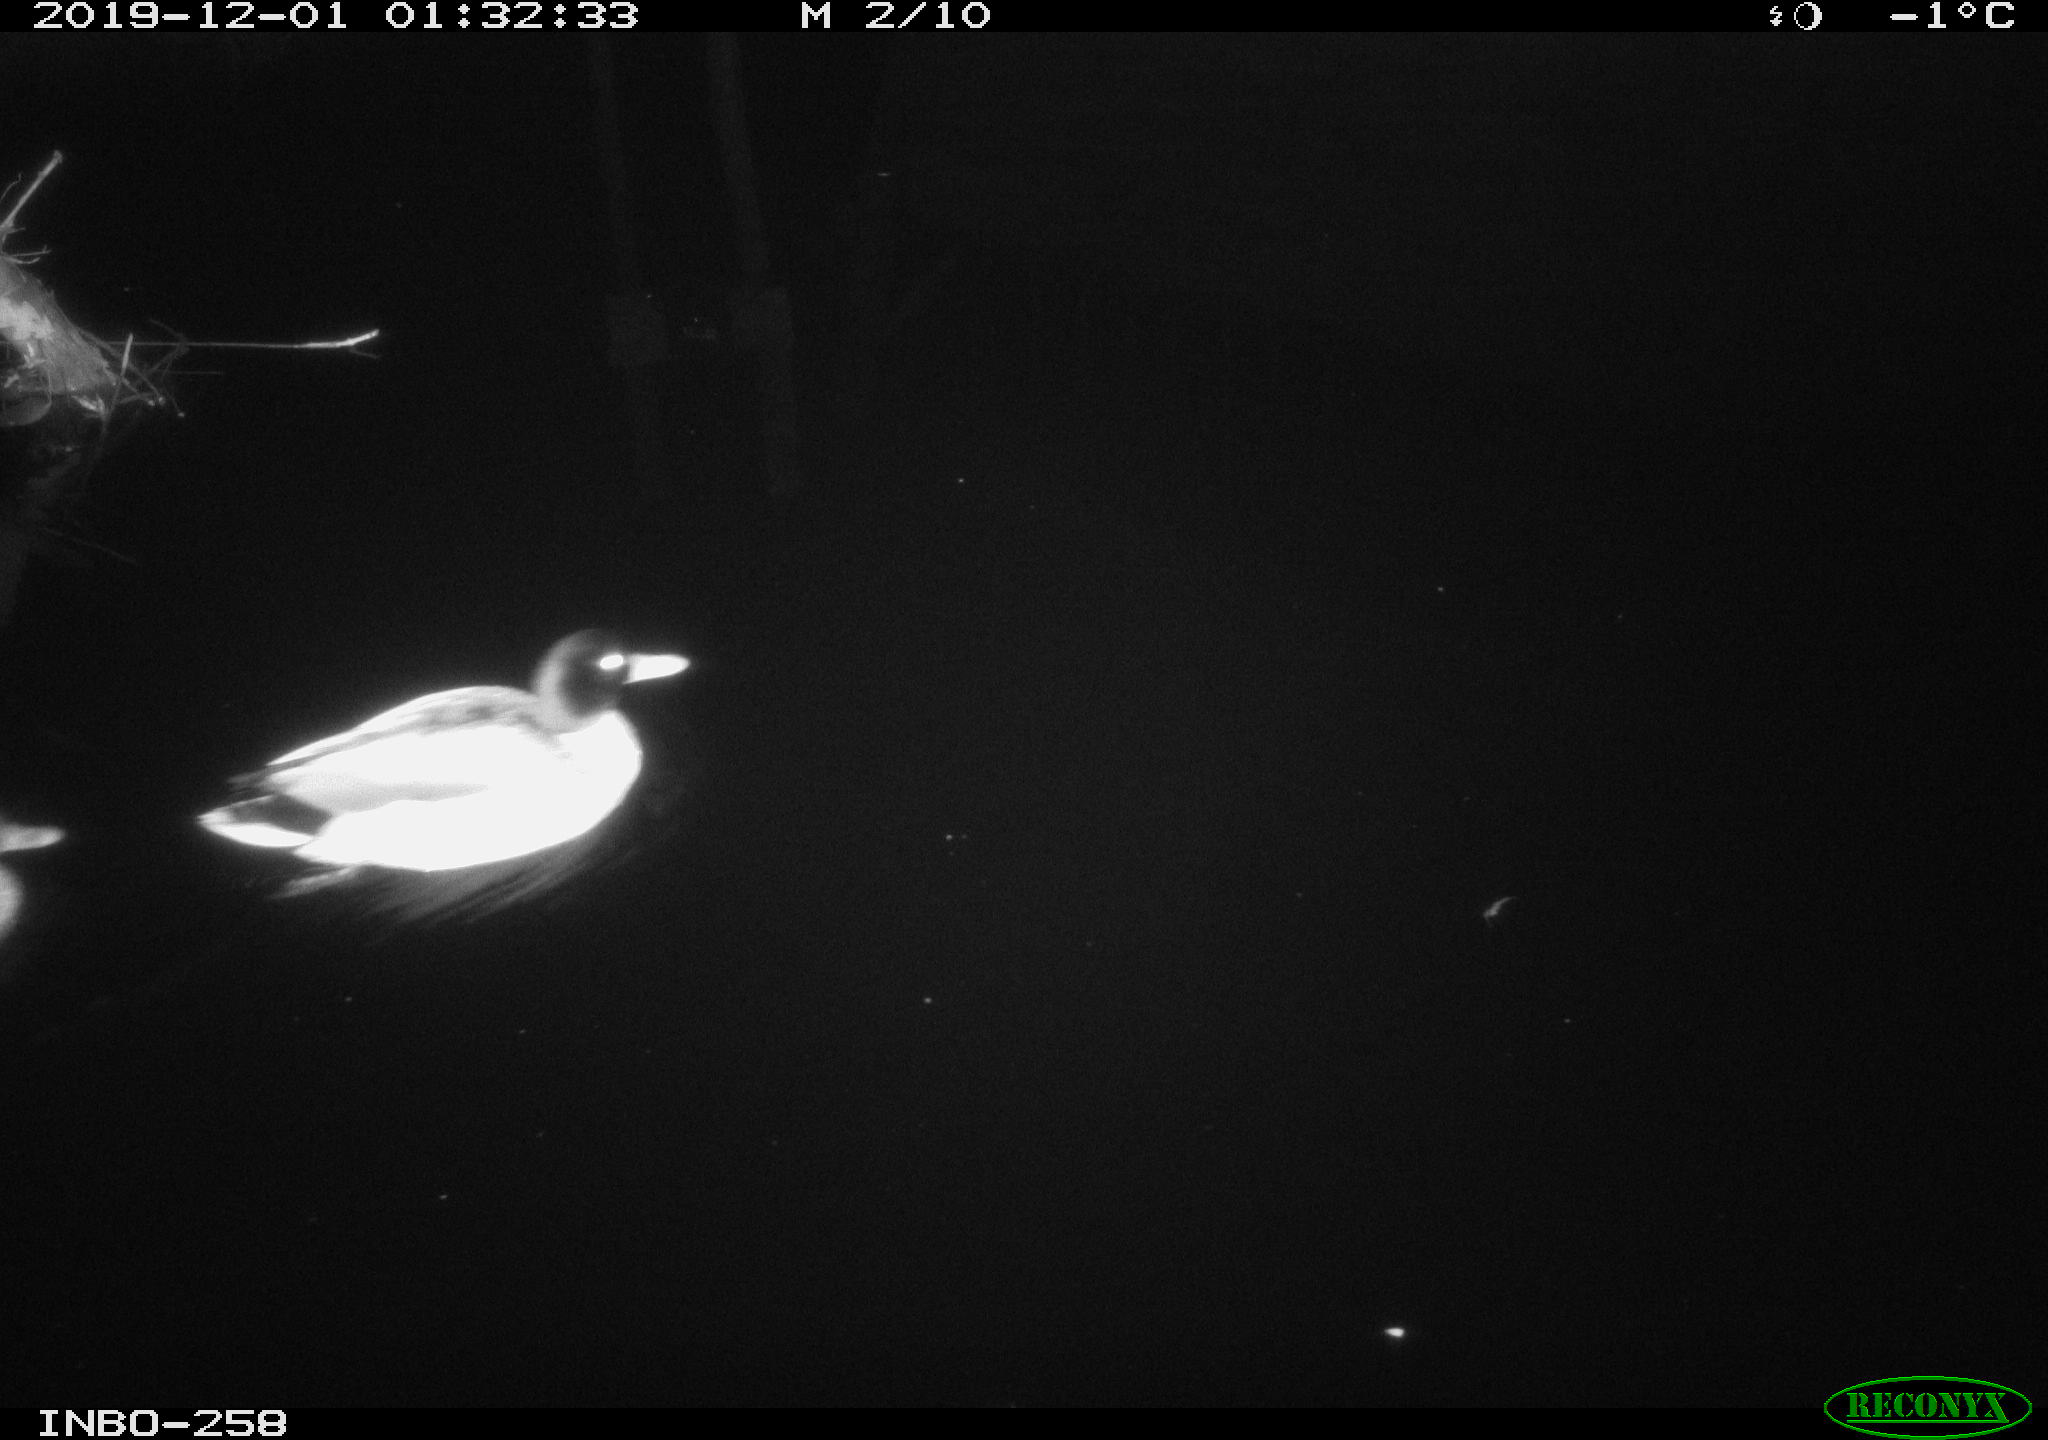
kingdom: Animalia
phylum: Chordata
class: Aves
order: Anseriformes
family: Anatidae
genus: Anas
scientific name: Anas platyrhynchos
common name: Mallard
